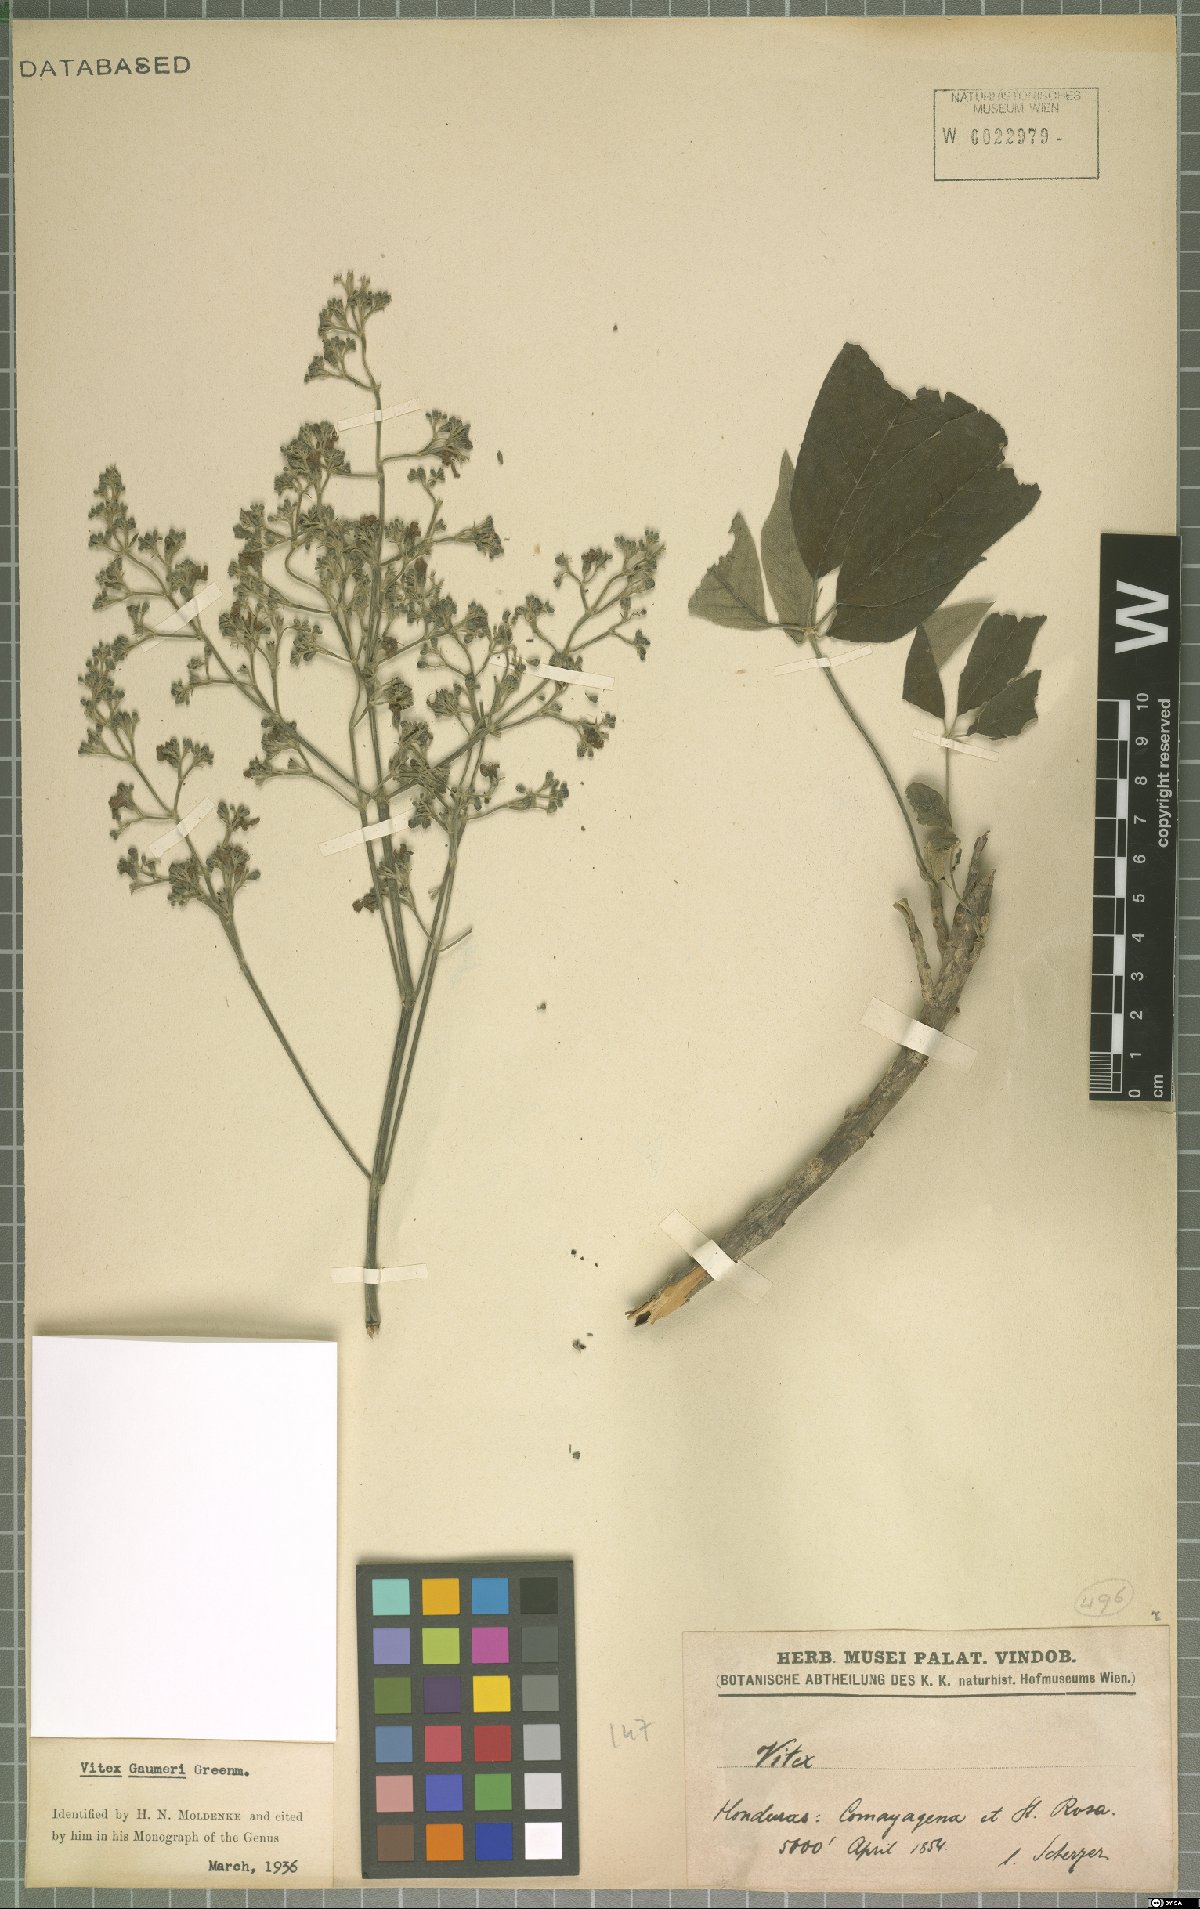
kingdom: Plantae
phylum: Tracheophyta
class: Magnoliopsida
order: Lamiales
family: Lamiaceae
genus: Vitex
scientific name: Vitex gaumeri
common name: Fiddlewood
